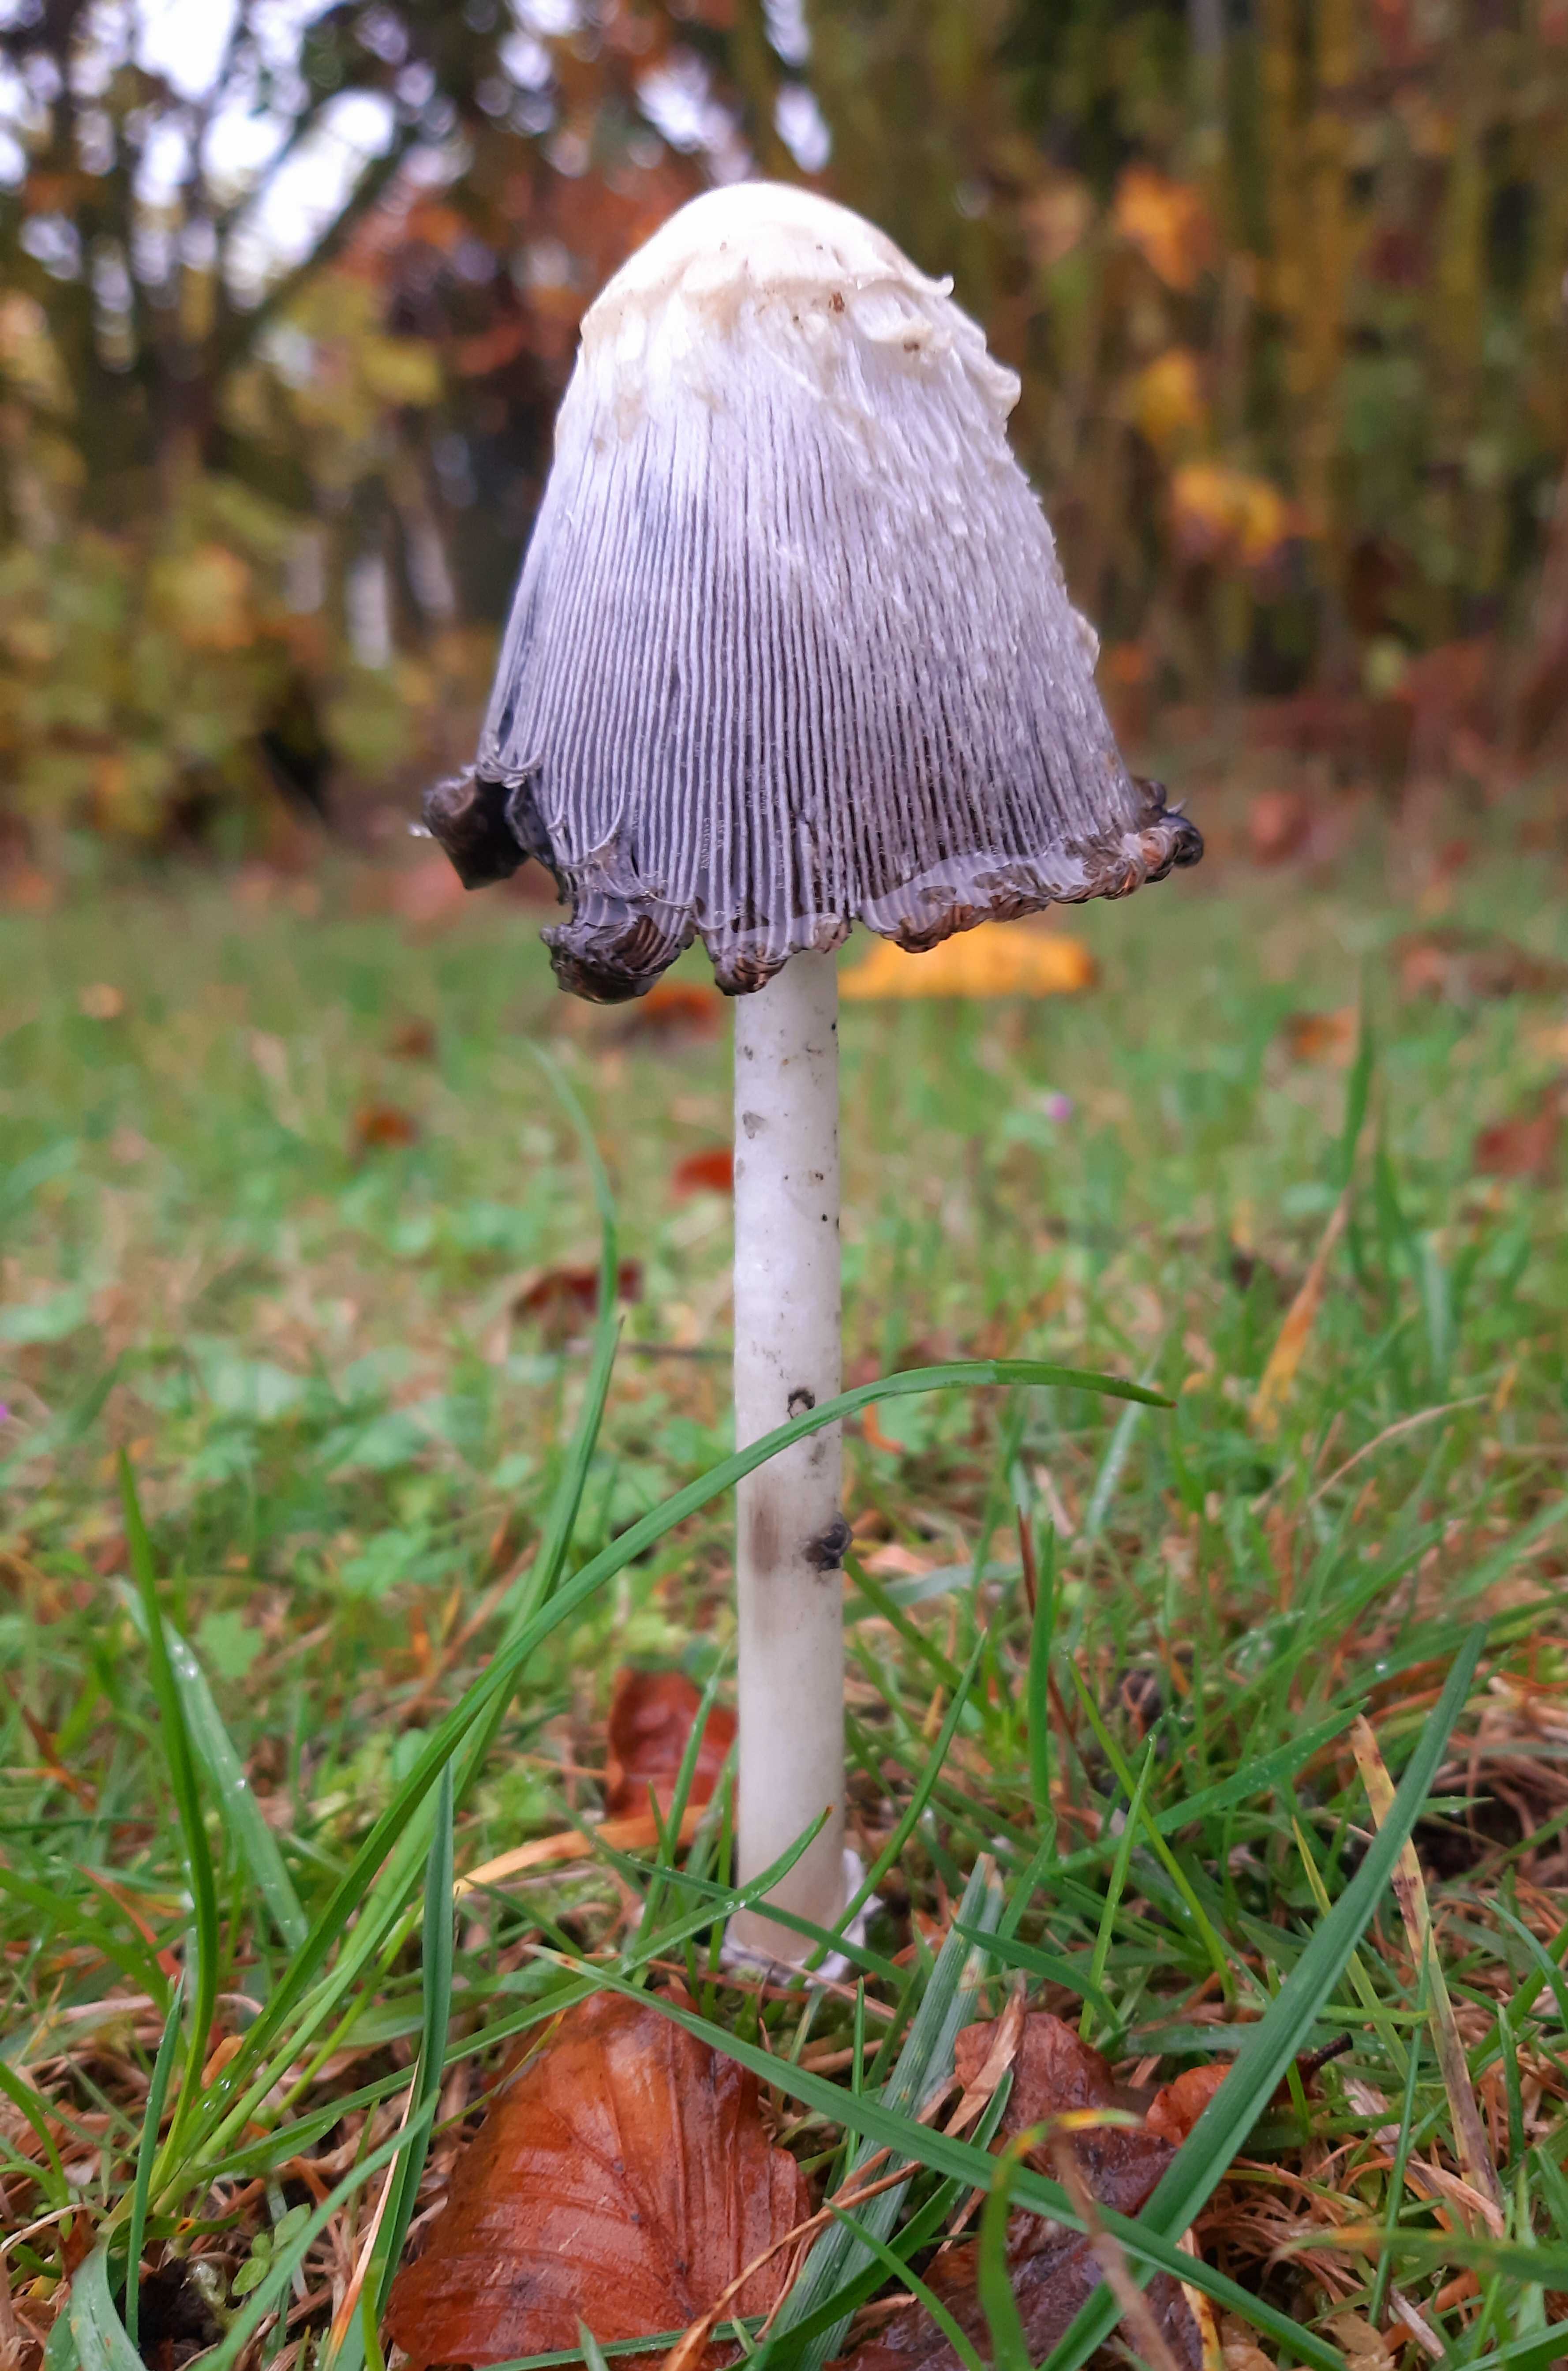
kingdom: Fungi
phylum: Basidiomycota
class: Agaricomycetes
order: Agaricales
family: Agaricaceae
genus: Coprinus
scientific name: Coprinus comatus
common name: stor parykhat
